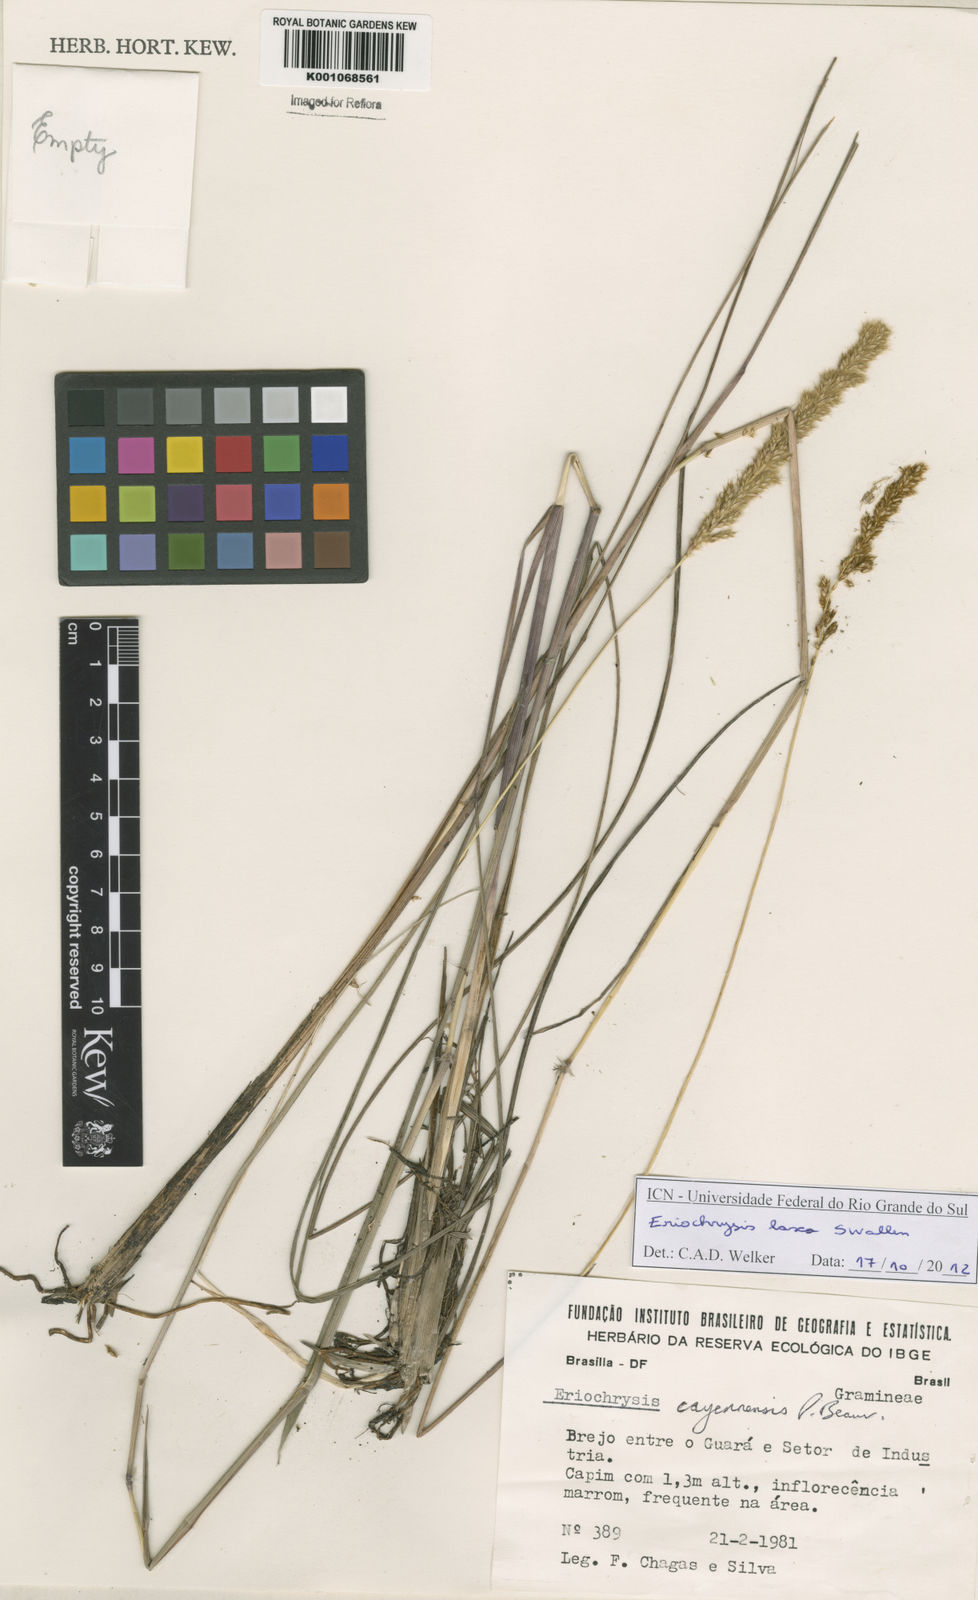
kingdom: Plantae
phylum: Tracheophyta
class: Liliopsida
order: Poales
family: Poaceae
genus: Eriochrysis
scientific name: Eriochrysis laxa
